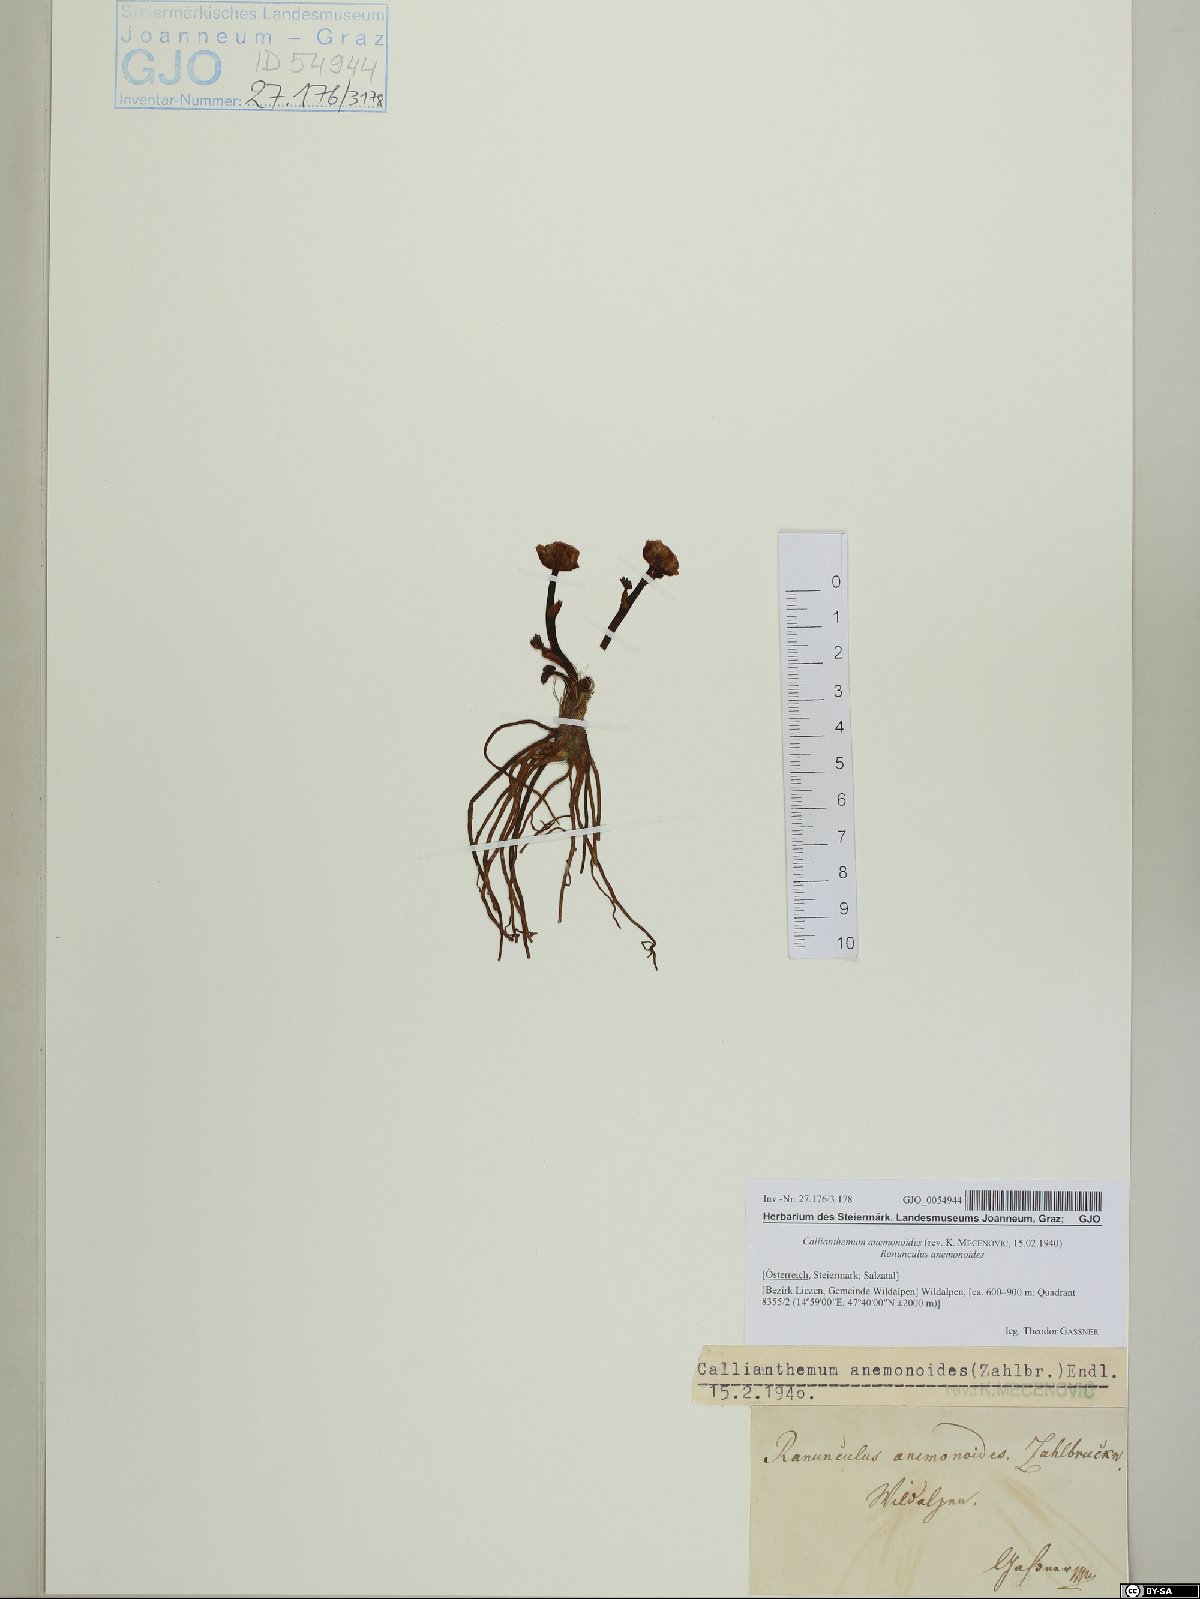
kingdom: Plantae
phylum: Tracheophyta
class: Magnoliopsida
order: Ranunculales
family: Ranunculaceae
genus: Callianthemum
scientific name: Callianthemum anemonoides
